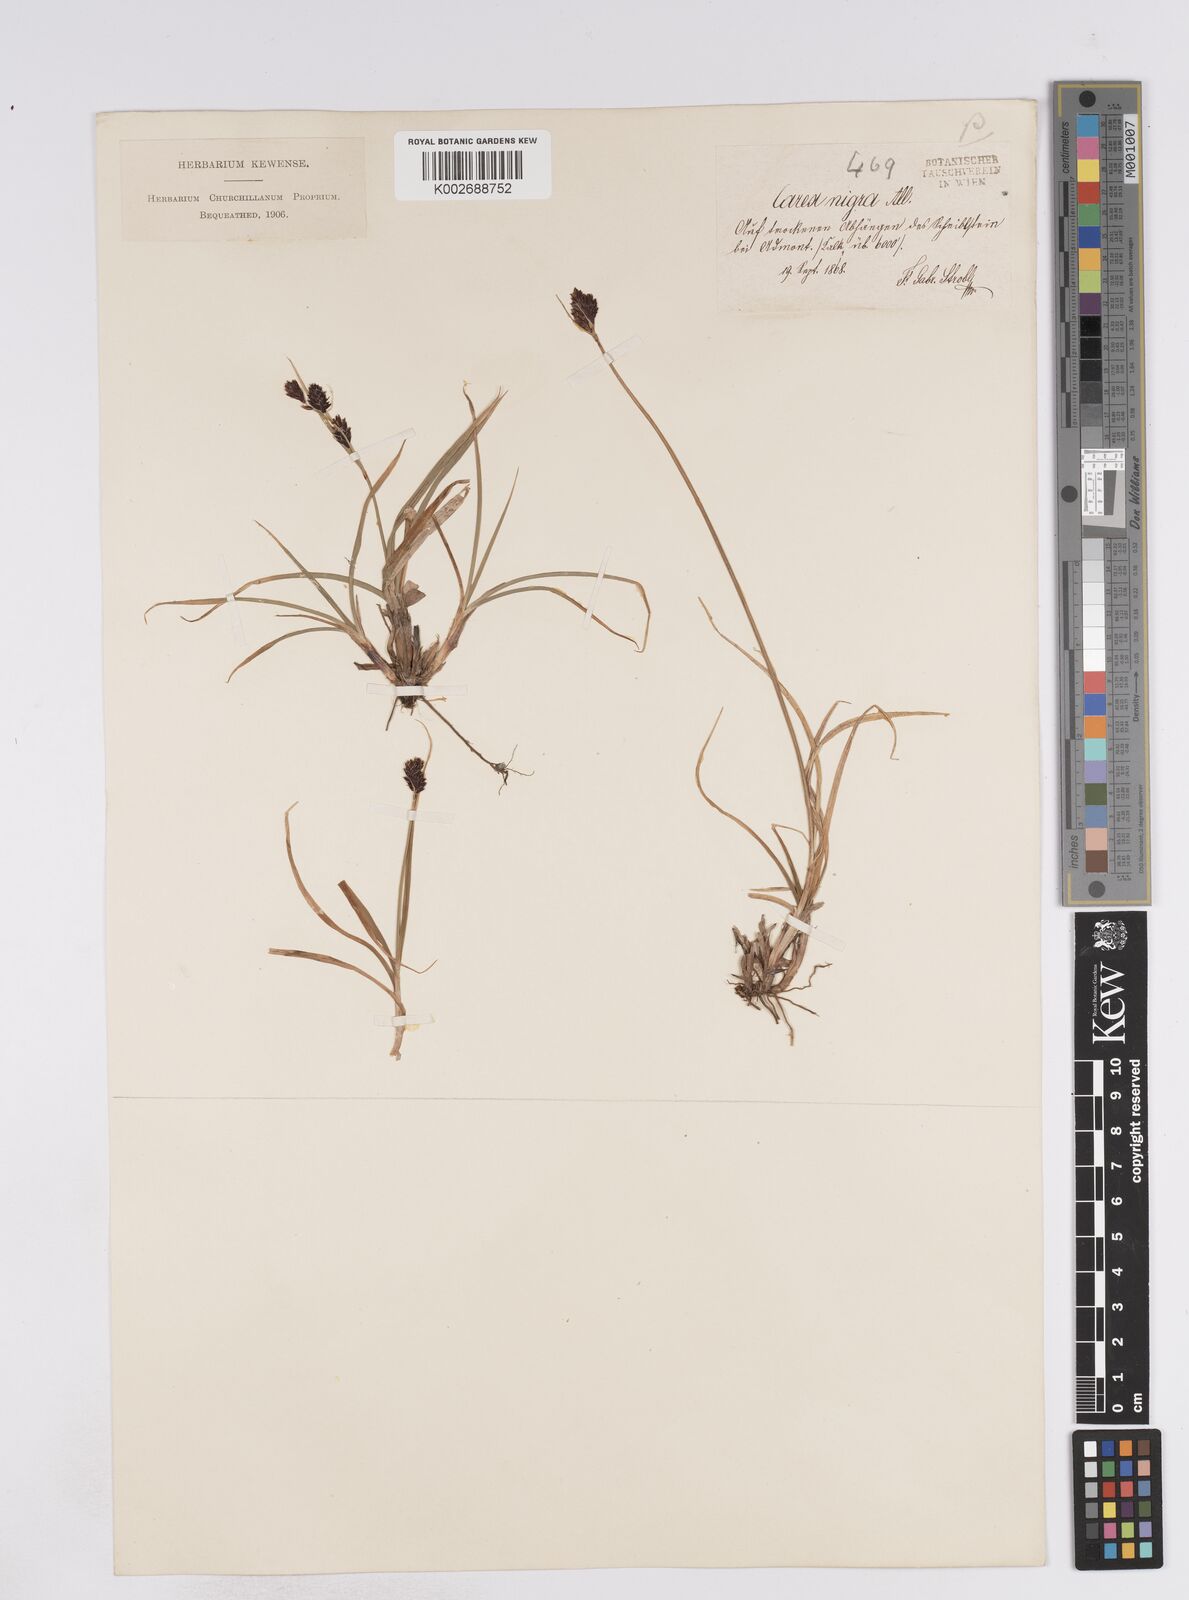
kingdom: Plantae
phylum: Tracheophyta
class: Liliopsida
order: Poales
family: Cyperaceae
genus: Carex
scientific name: Carex parviflora
